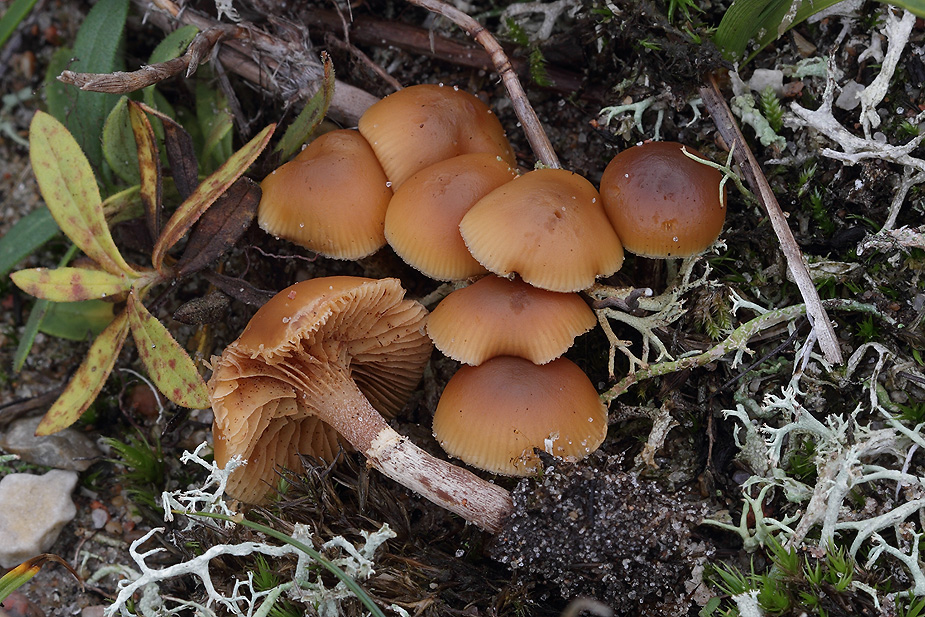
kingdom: Fungi
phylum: Basidiomycota
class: Agaricomycetes
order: Agaricales
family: Hymenogastraceae
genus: Galerina
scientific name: Galerina marginata
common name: randbæltet hjelmhat
